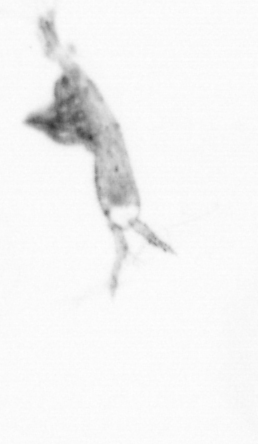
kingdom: Animalia
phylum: Arthropoda
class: Copepoda
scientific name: Copepoda
